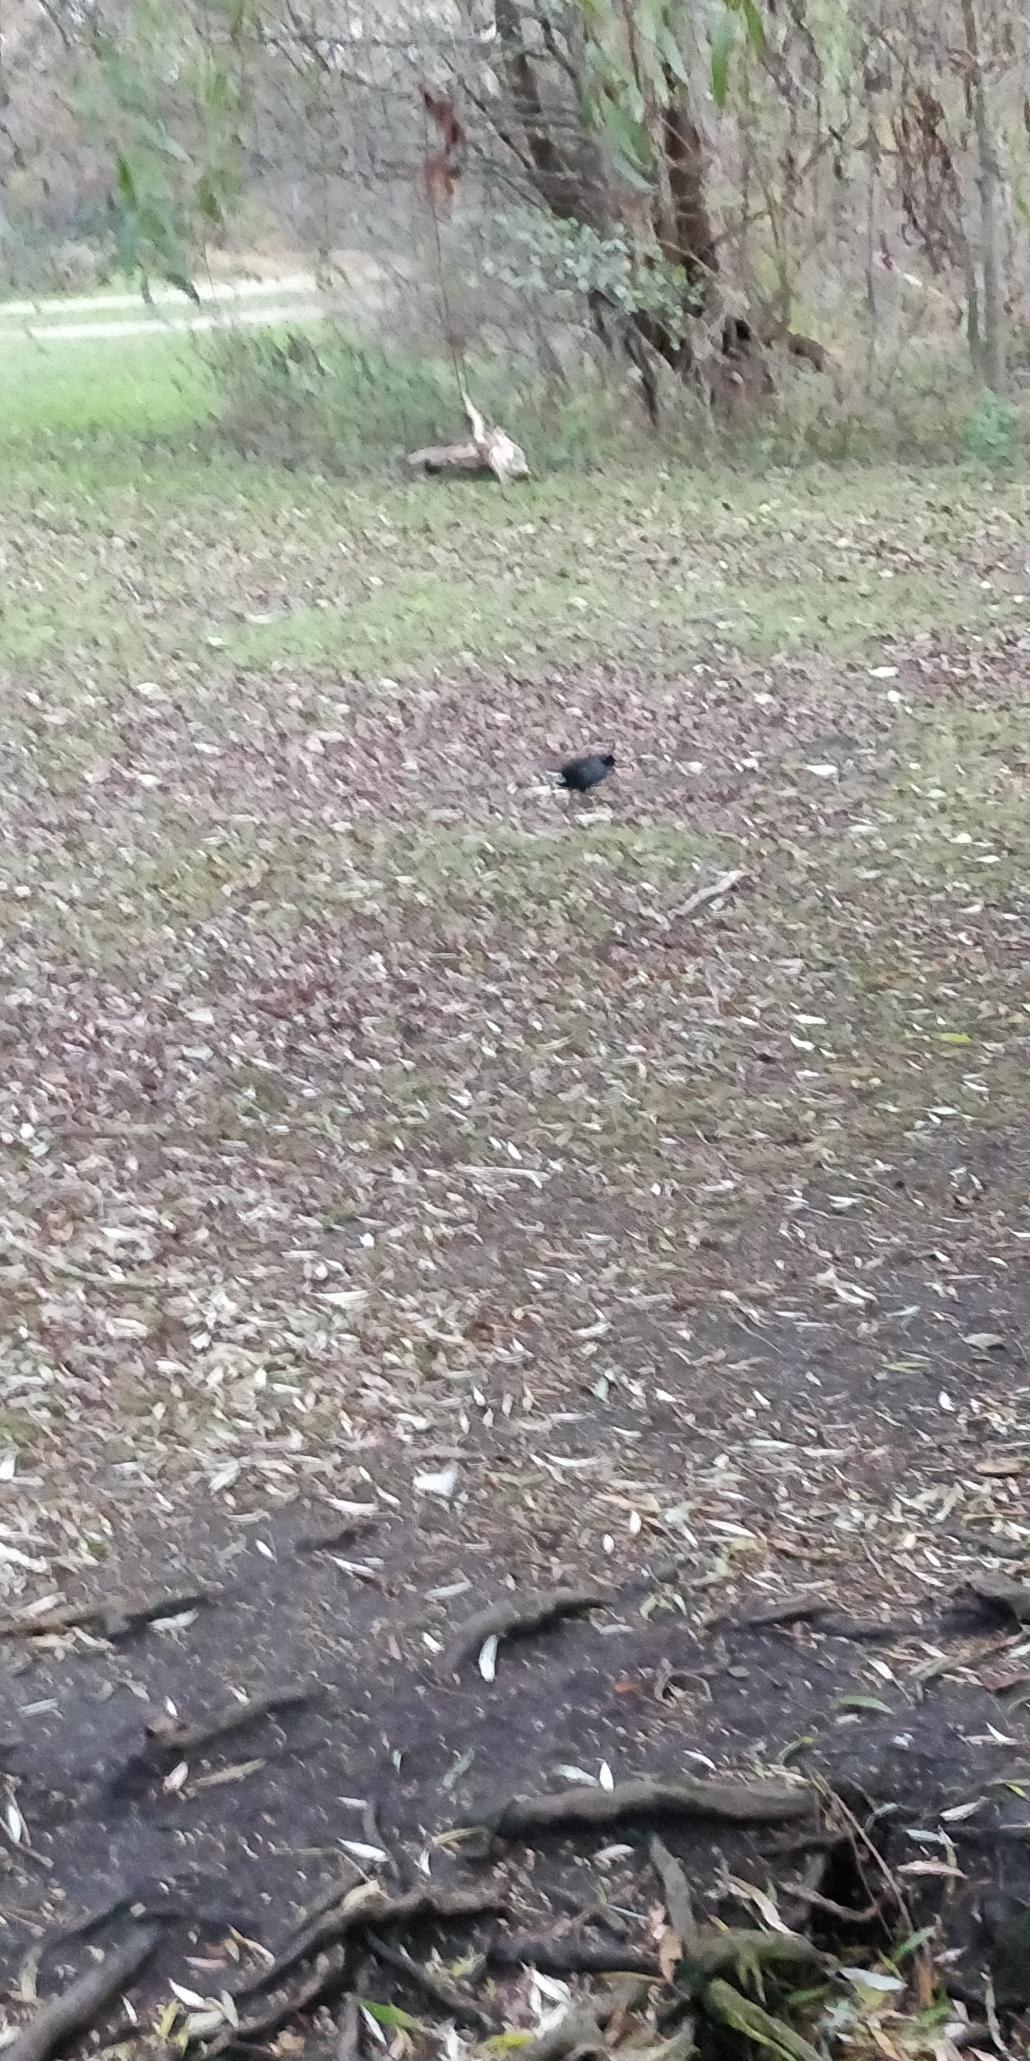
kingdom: Animalia
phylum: Chordata
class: Aves
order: Gruiformes
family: Rallidae
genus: Gallinula
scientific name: Gallinula chloropus
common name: Grønbenet rørhøne
